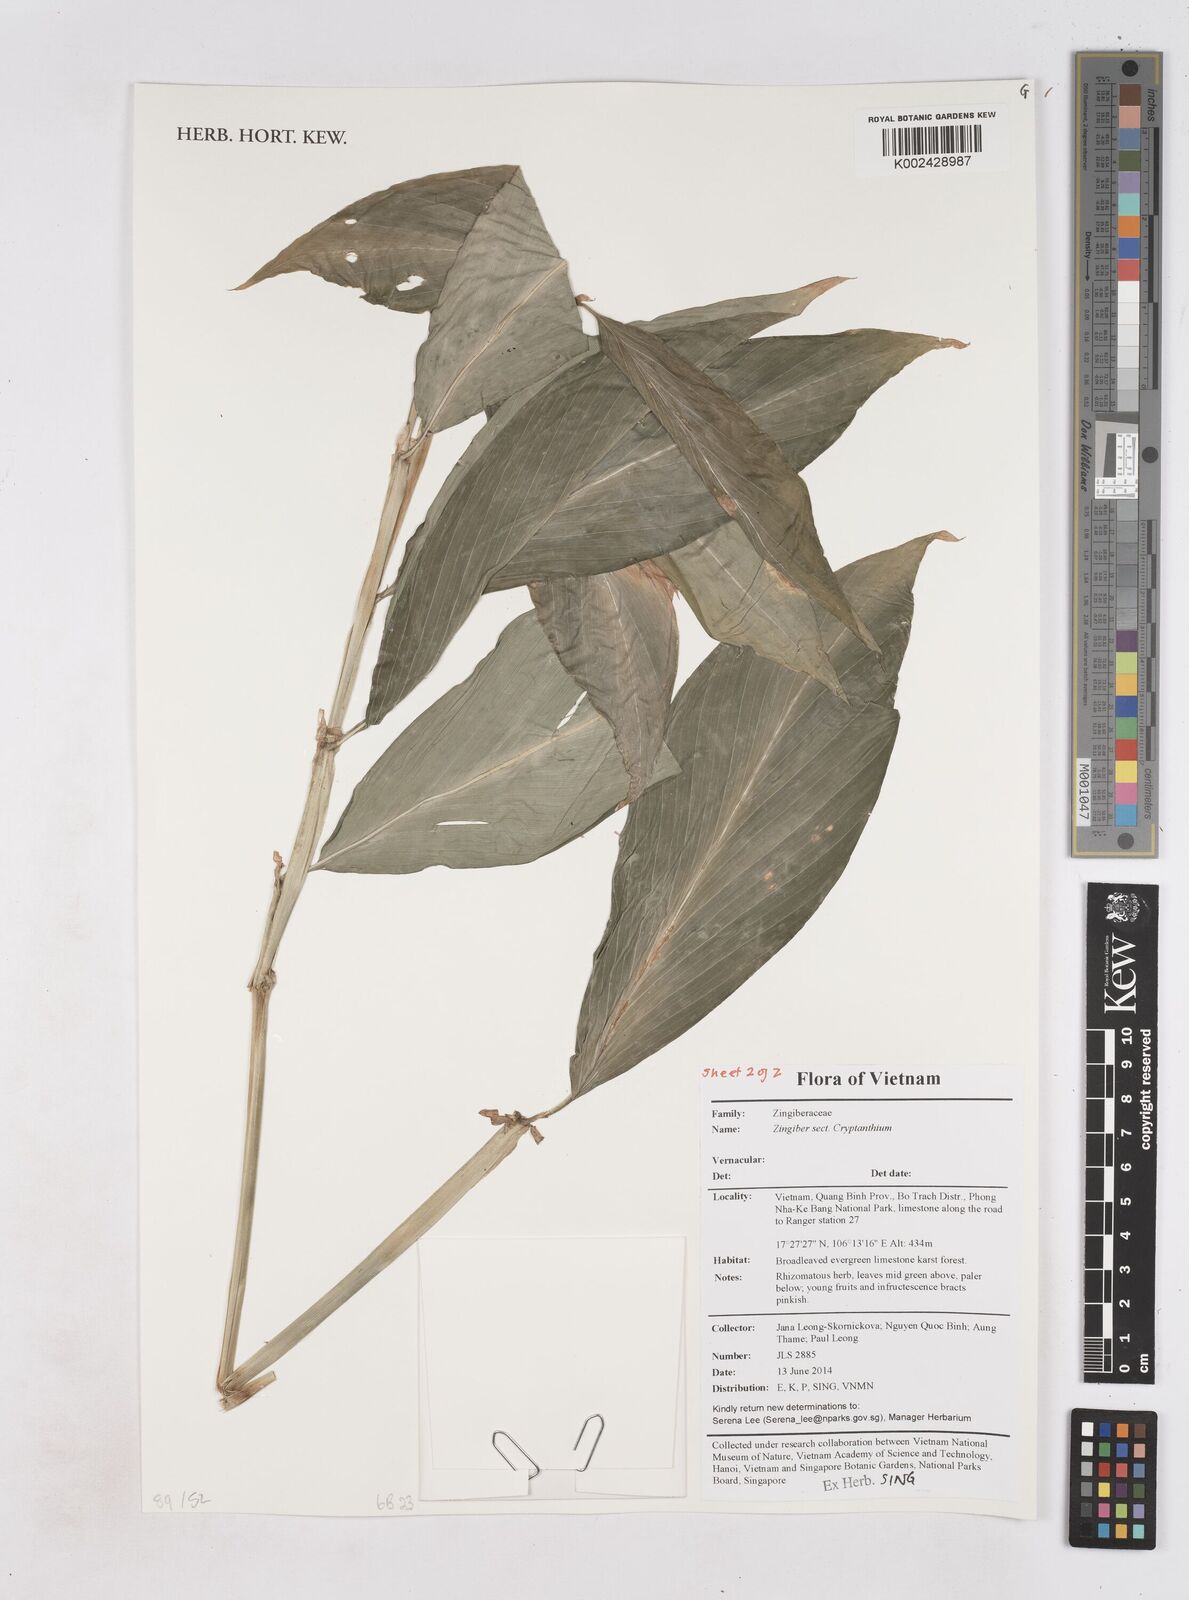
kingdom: Plantae
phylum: Tracheophyta
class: Liliopsida
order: Zingiberales
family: Zingiberaceae
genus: Zingiber
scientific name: Zingiber
